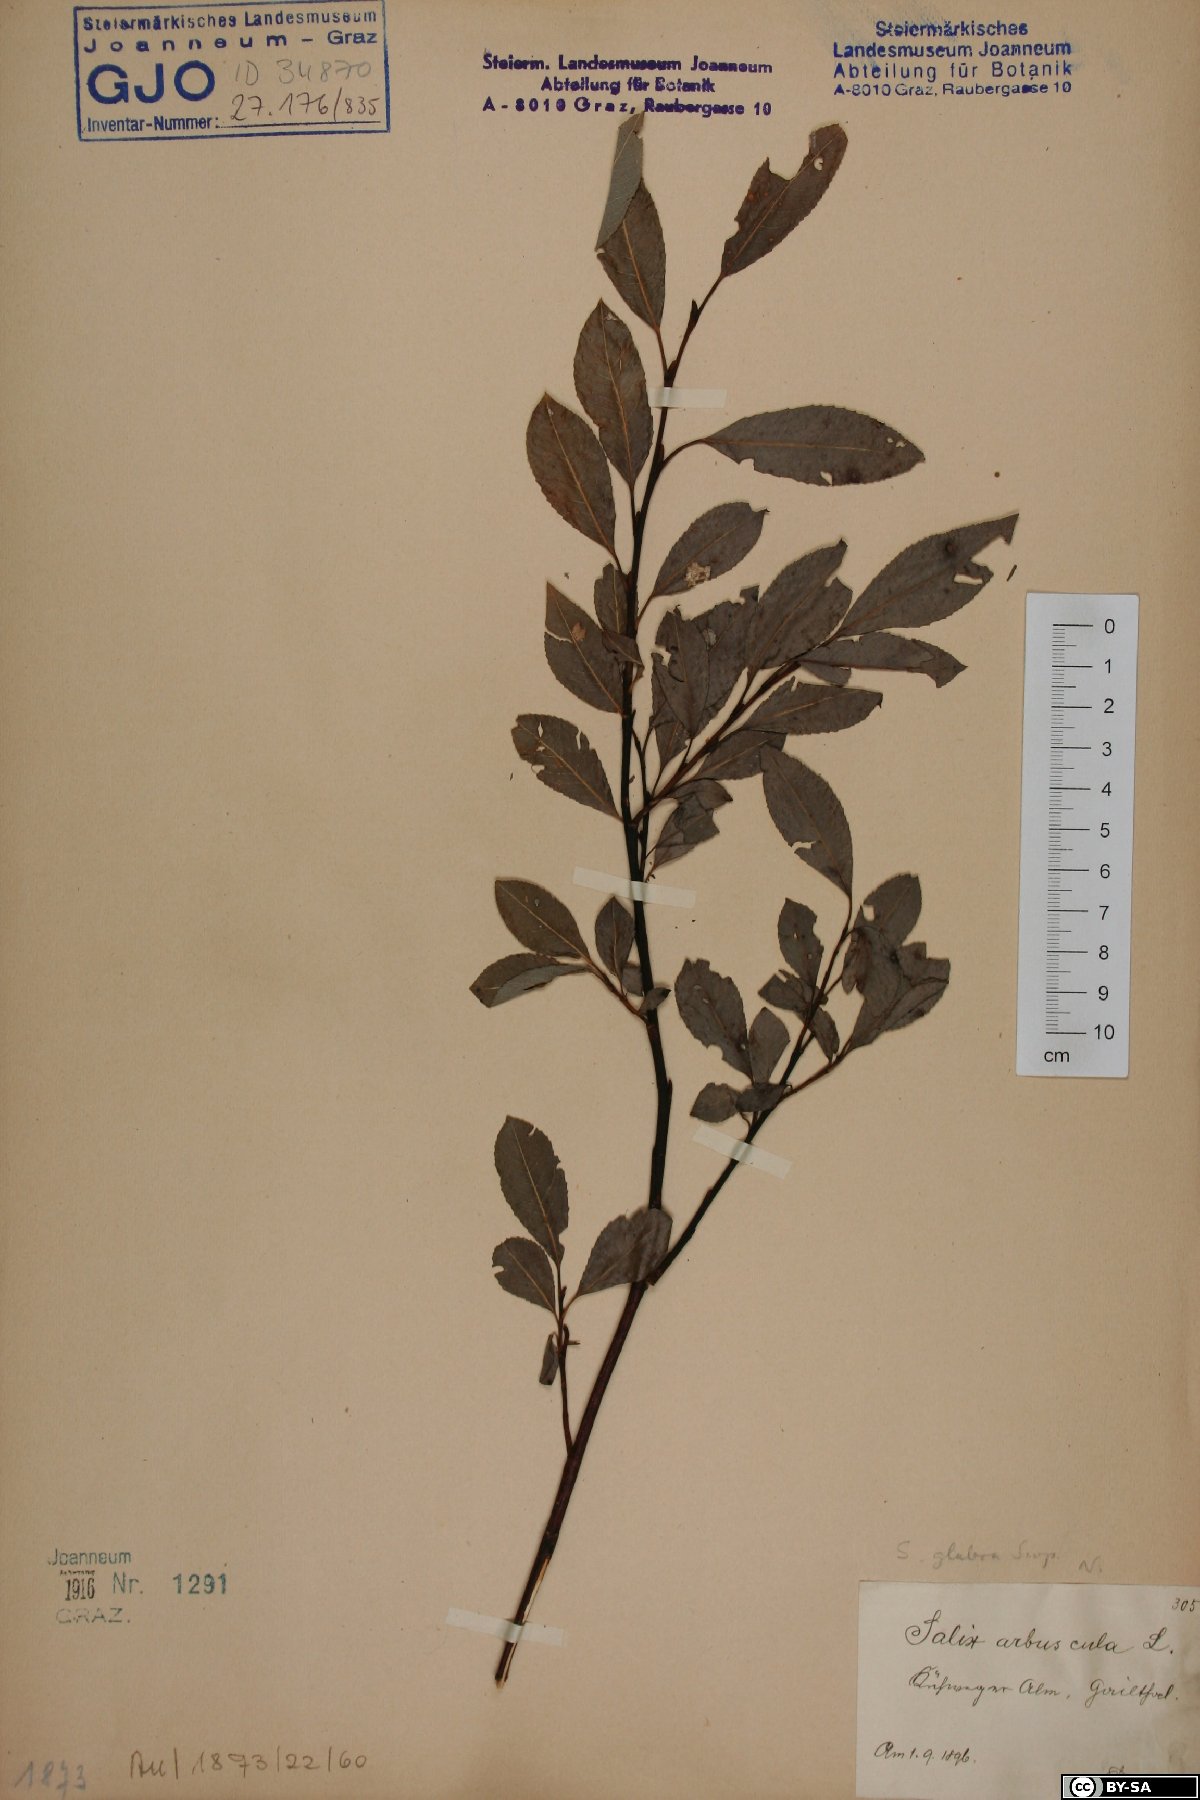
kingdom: Plantae
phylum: Tracheophyta
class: Magnoliopsida
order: Malpighiales
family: Salicaceae
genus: Salix
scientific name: Salix glabra
